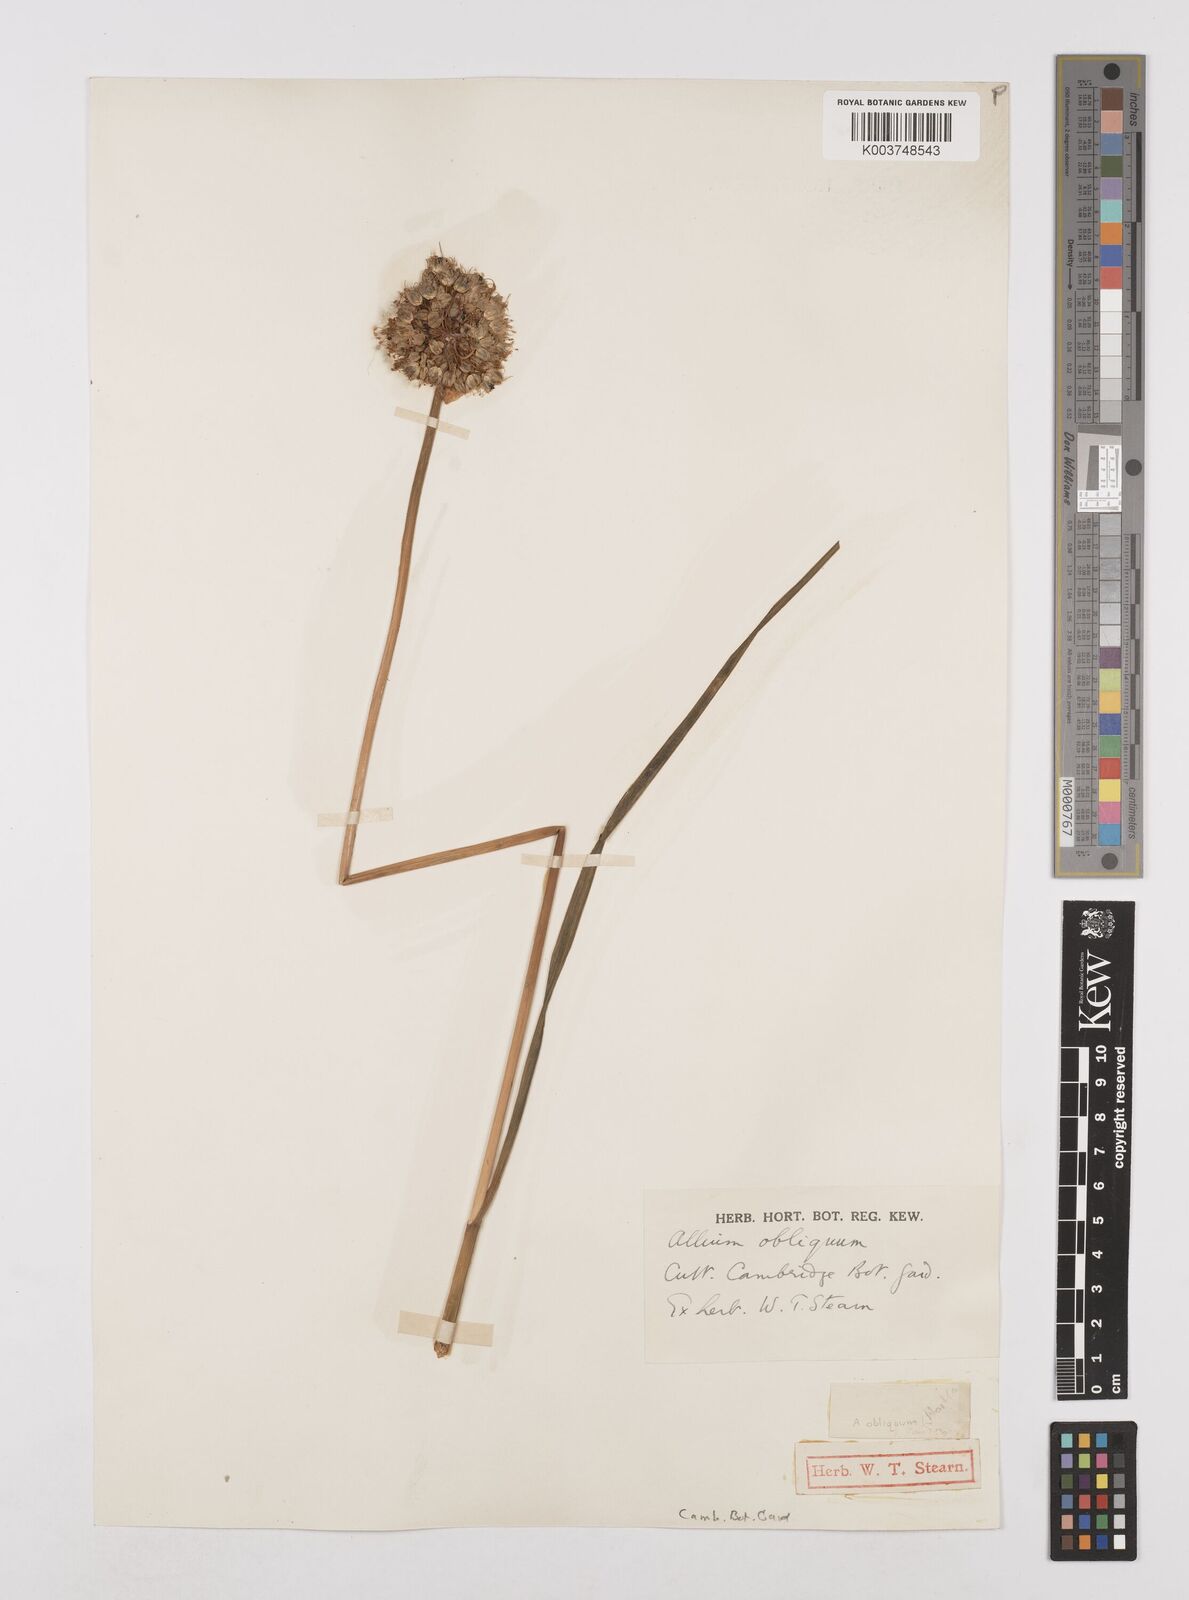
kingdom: Plantae
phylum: Tracheophyta
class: Liliopsida
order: Asparagales
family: Amaryllidaceae
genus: Allium
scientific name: Allium obliquum
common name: Oblique onion
